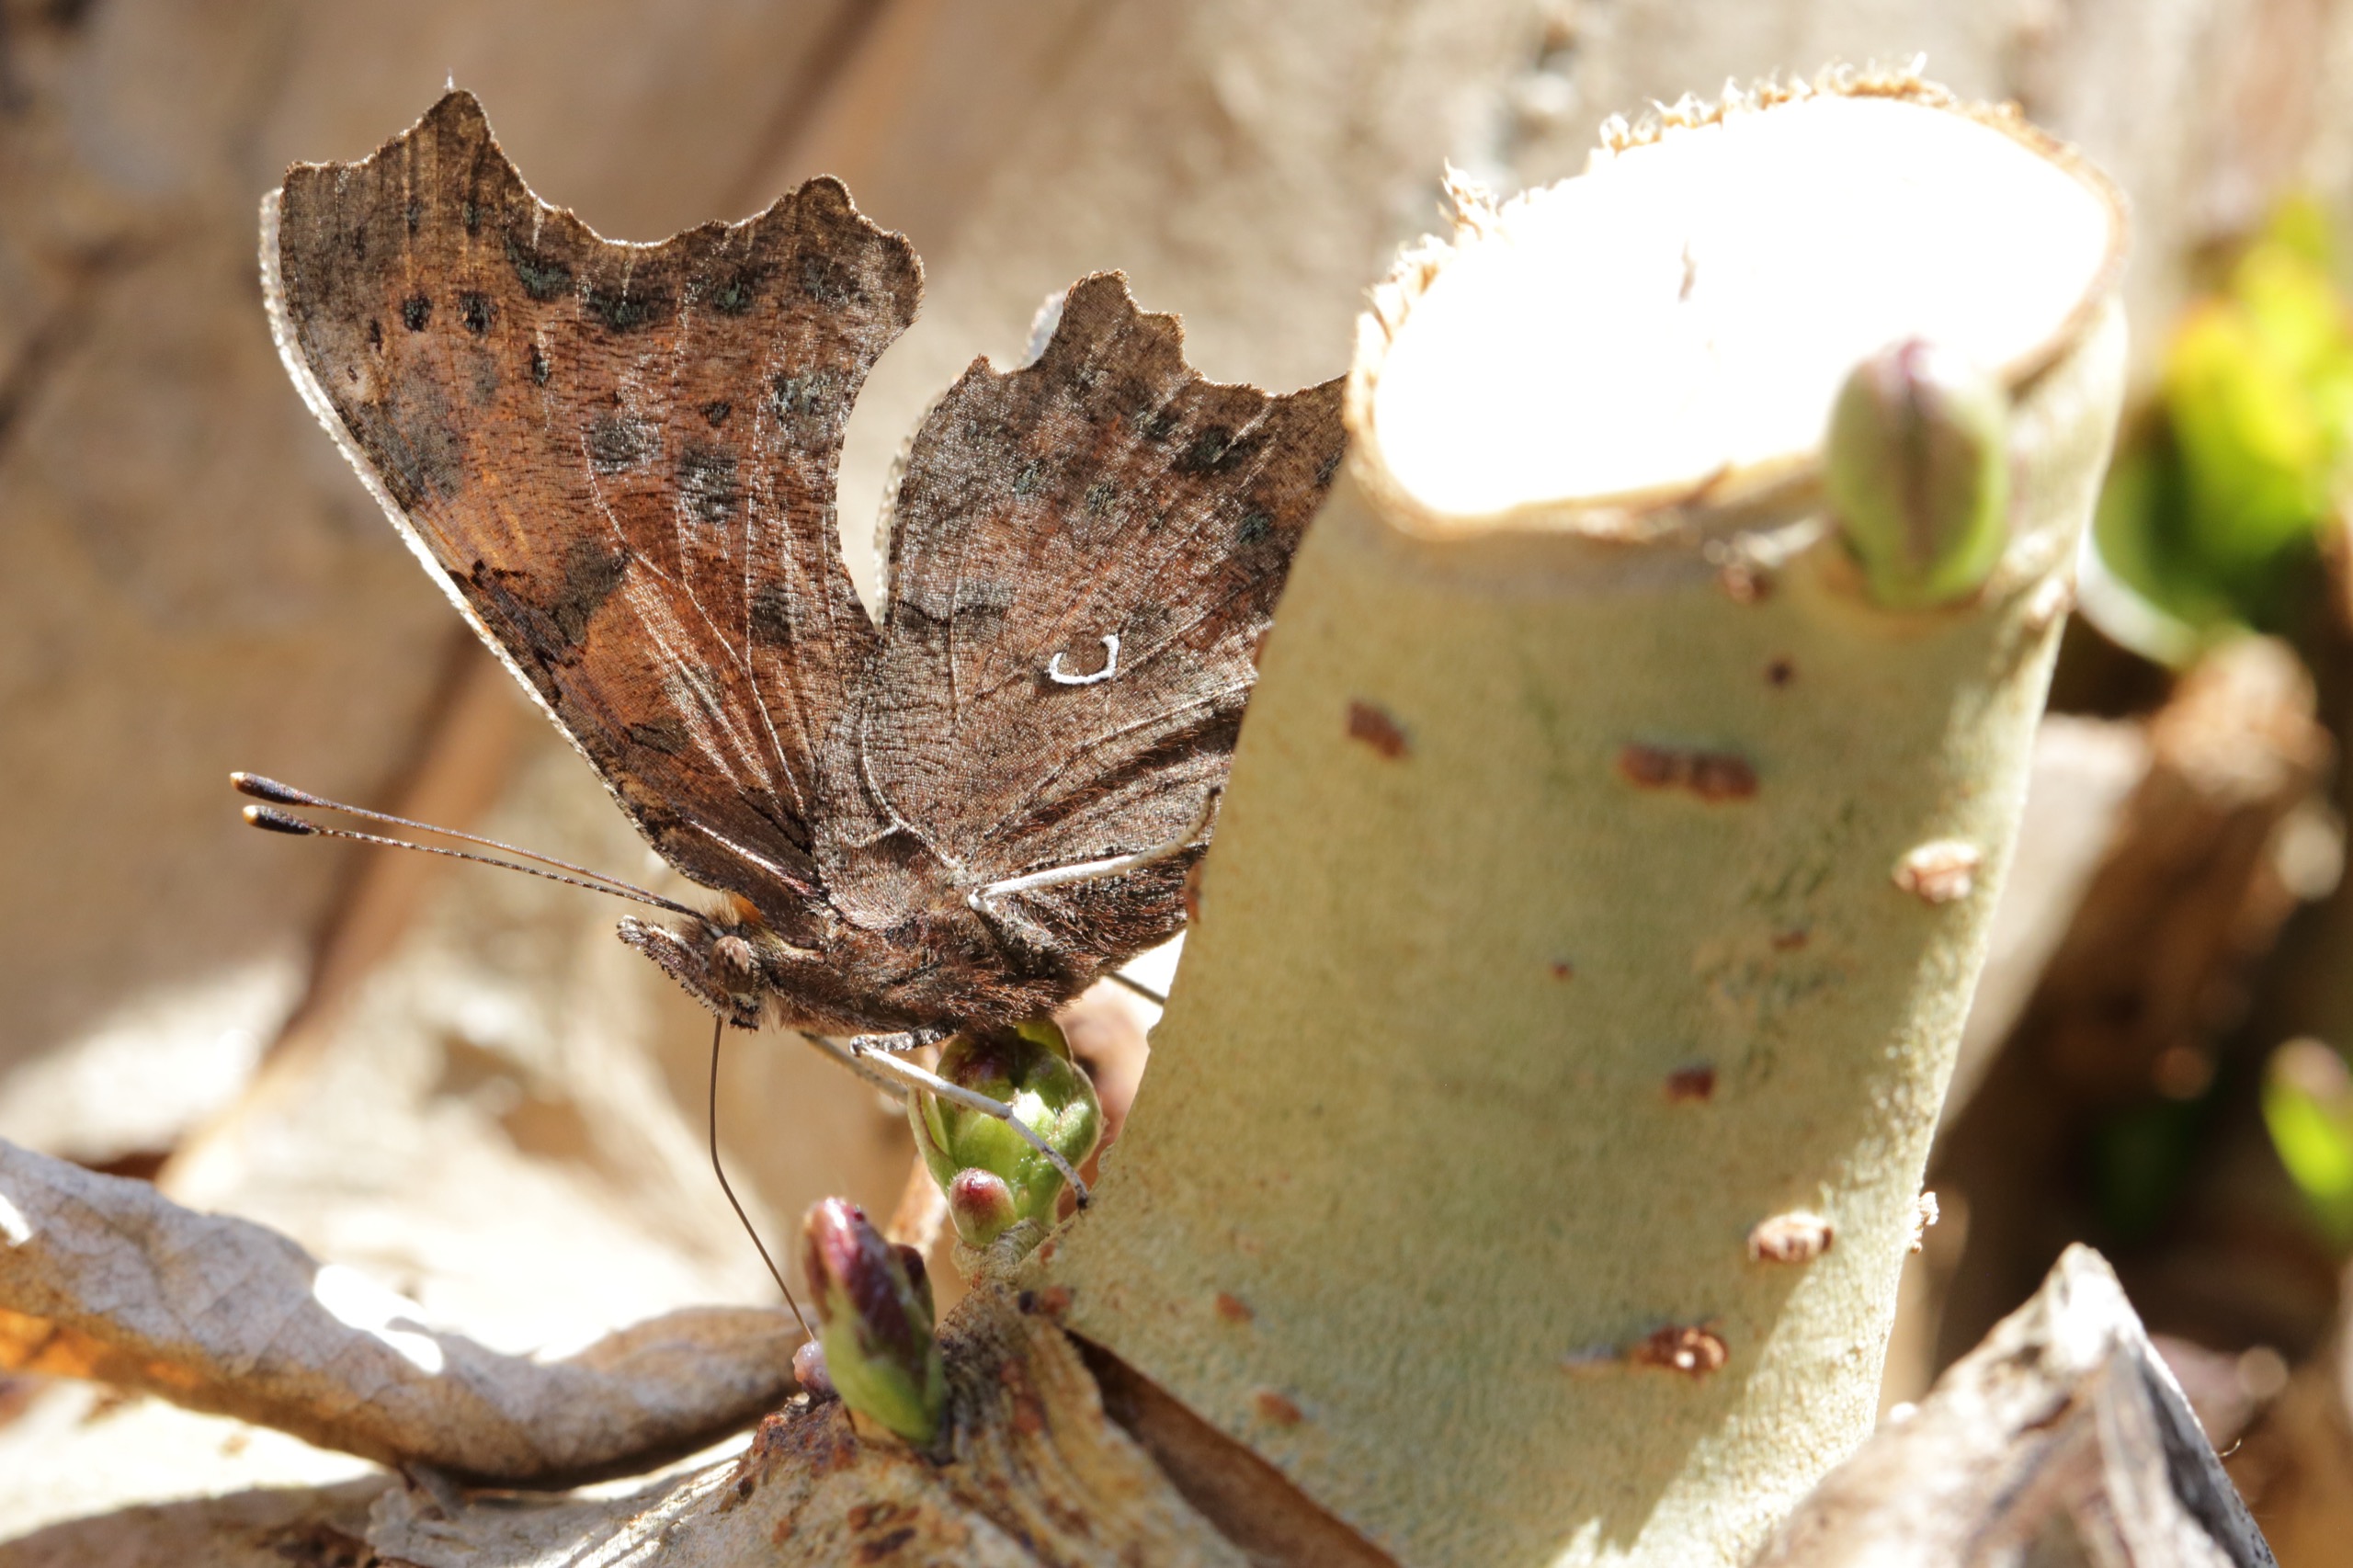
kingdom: Animalia
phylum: Arthropoda
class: Insecta
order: Lepidoptera
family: Nymphalidae
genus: Polygonia
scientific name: Polygonia c-album
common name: Det hvide C
